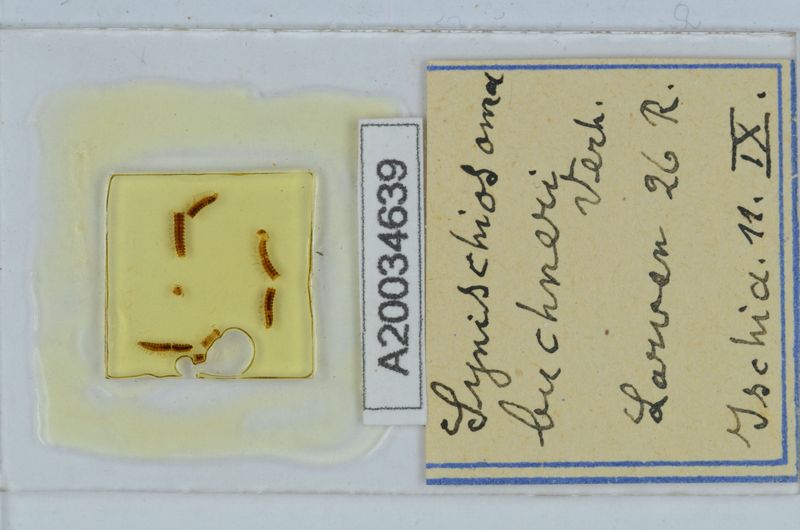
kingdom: Animalia
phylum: Arthropoda
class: Diplopoda
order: Chordeumatida
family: Craspedosomatidae
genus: Synischiosoma
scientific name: Synischiosoma buchneri
